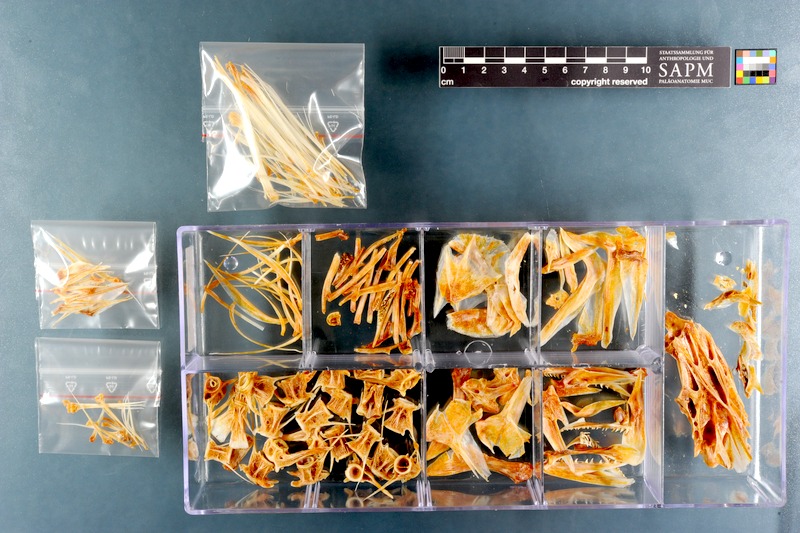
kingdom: Animalia
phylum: Chordata
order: Perciformes
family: Sciaenidae
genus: Atractoscion
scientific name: Atractoscion aequidens
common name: Geelbeck croaker
